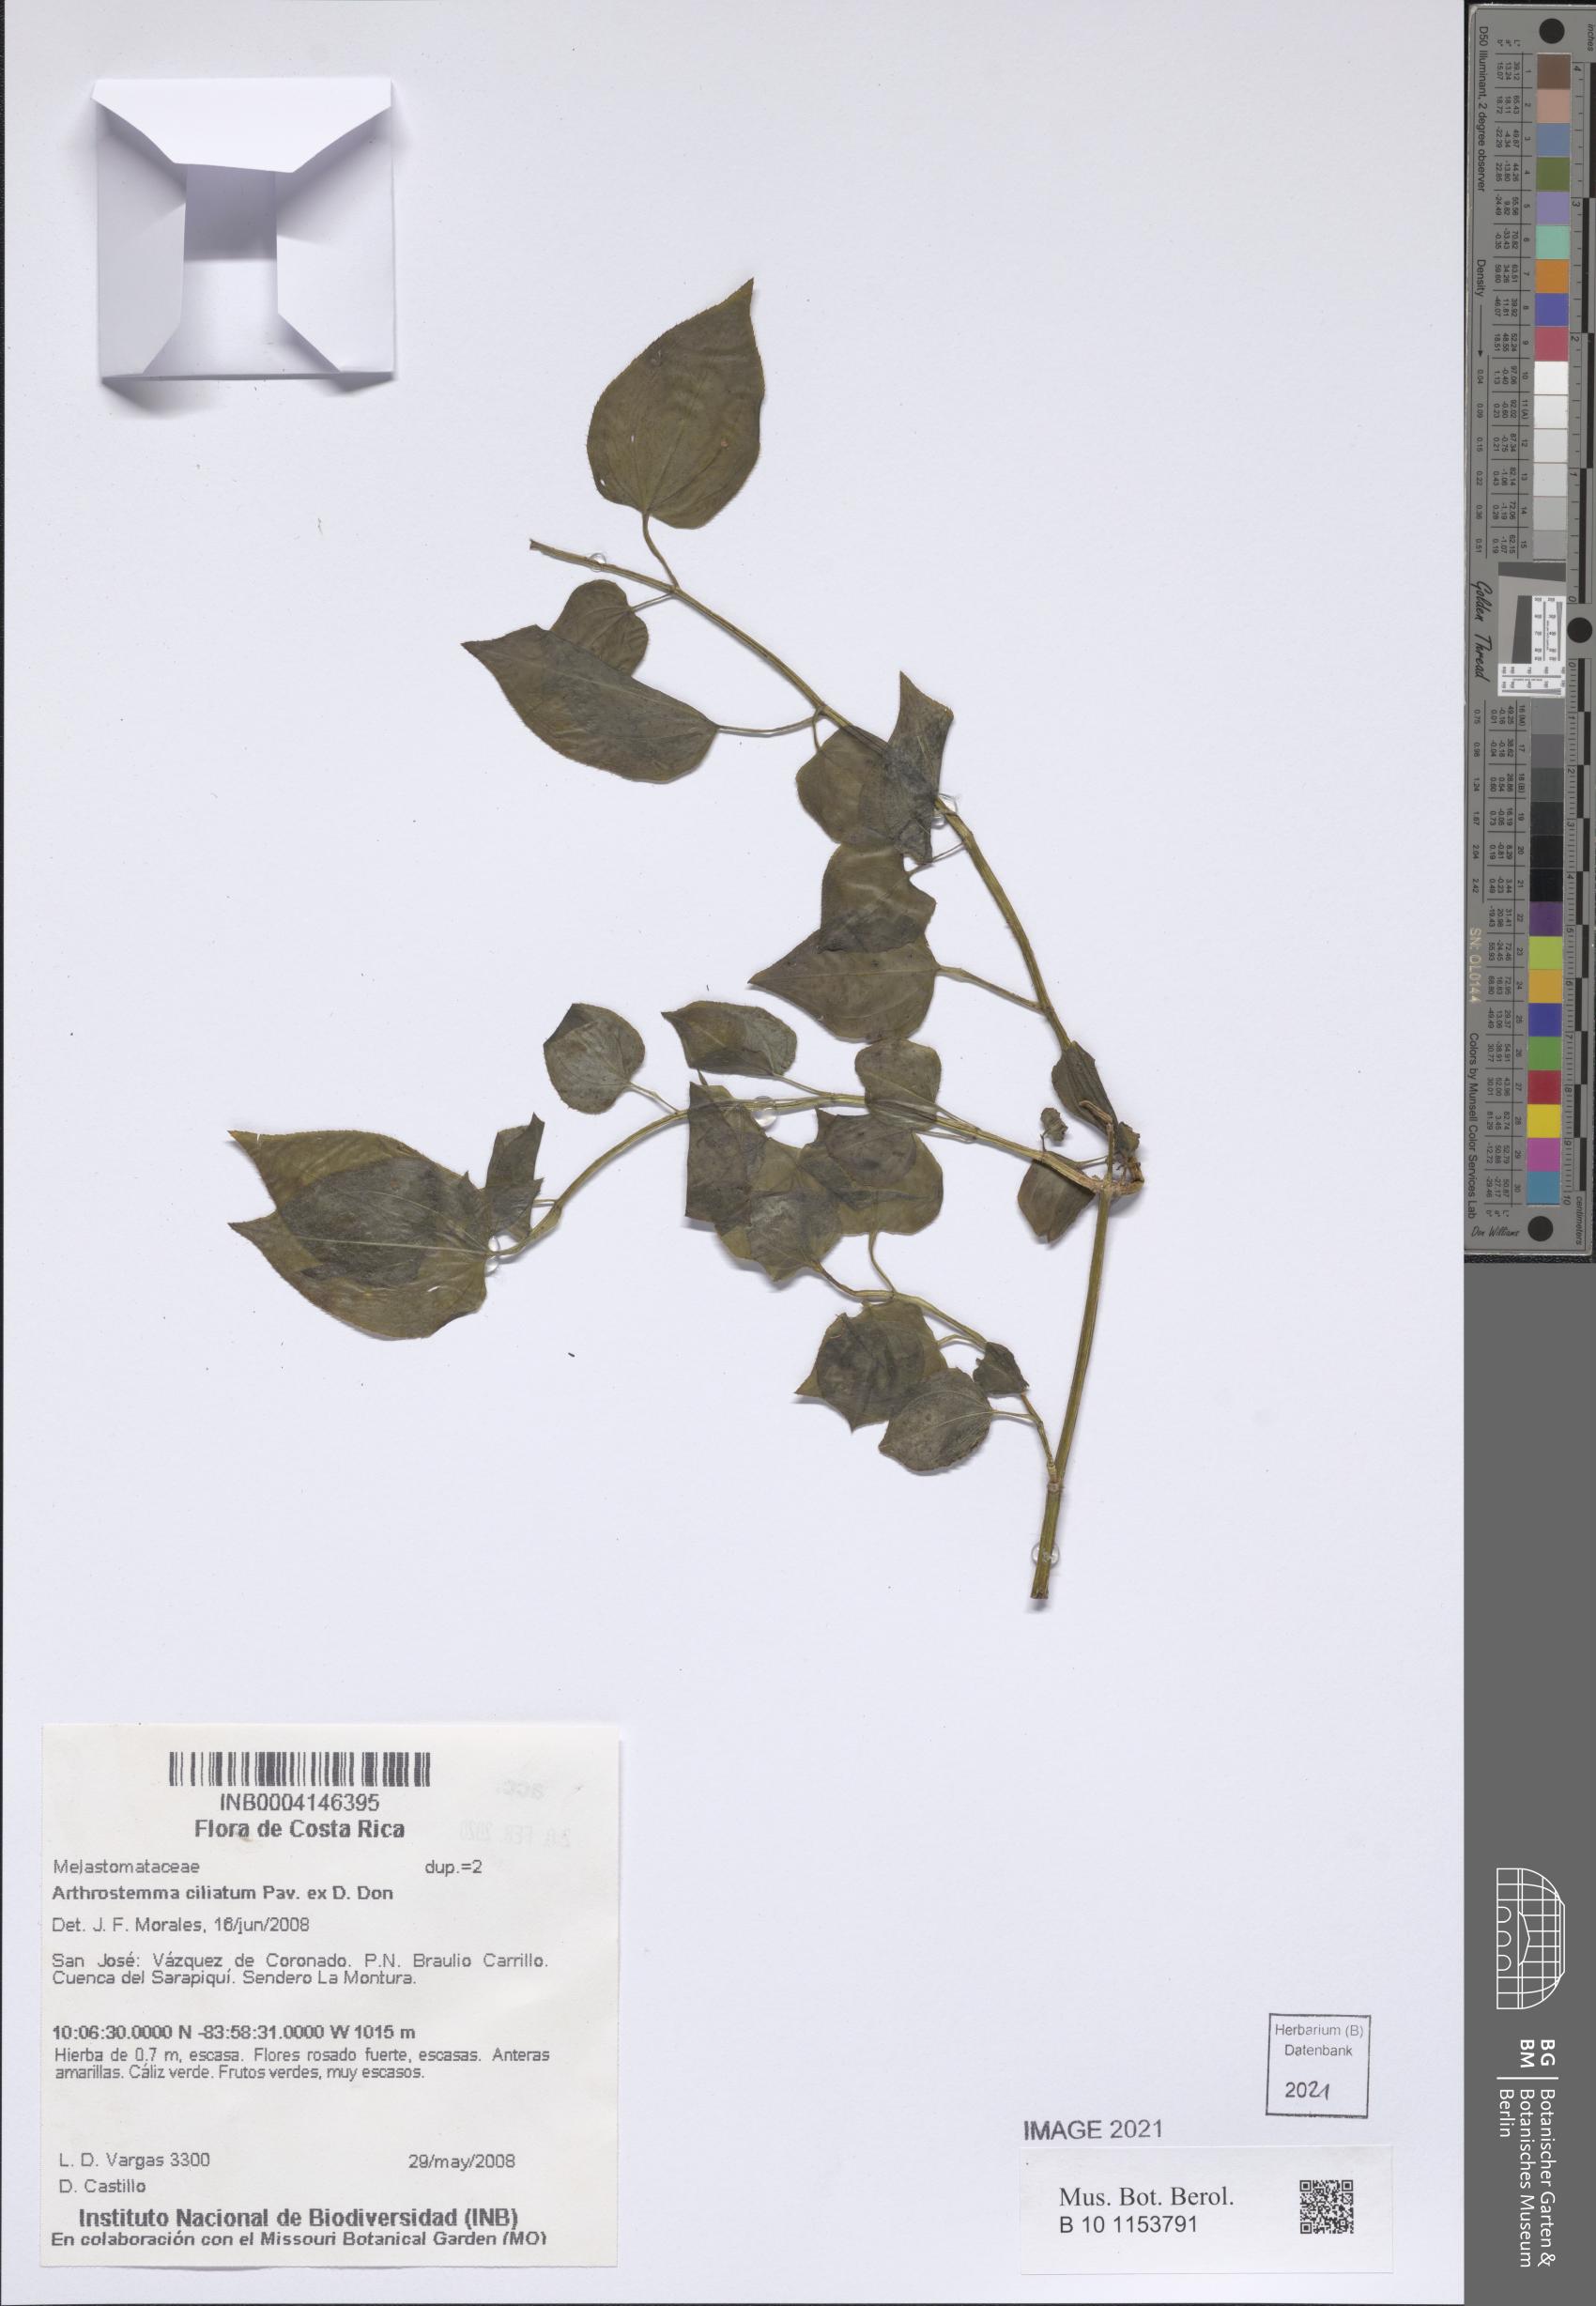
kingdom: Plantae
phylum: Tracheophyta
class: Magnoliopsida
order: Myrtales
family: Melastomataceae
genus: Arthrostemma
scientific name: Arthrostemma ciliatum
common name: Everblooming eavender
